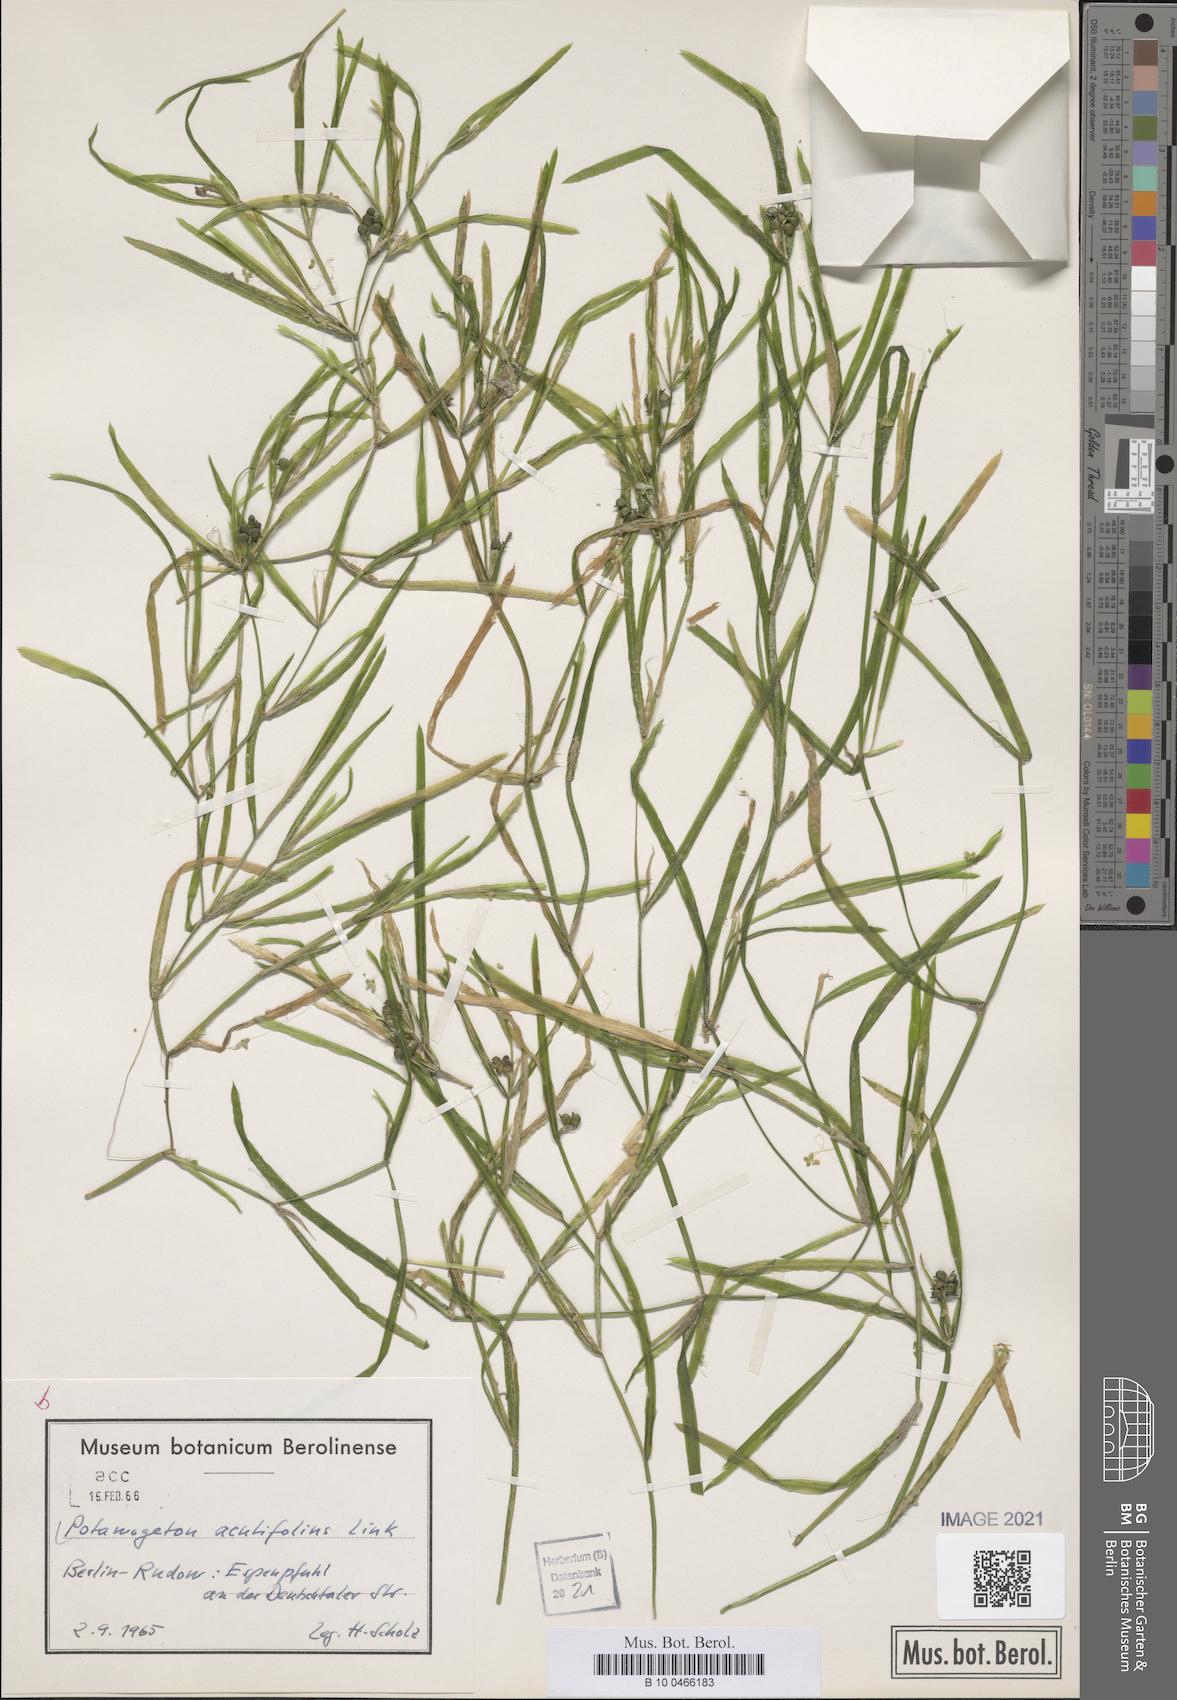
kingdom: Plantae
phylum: Tracheophyta
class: Liliopsida
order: Alismatales
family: Potamogetonaceae
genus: Potamogeton
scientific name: Potamogeton acutifolius
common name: Sharp-leaved pondweed
